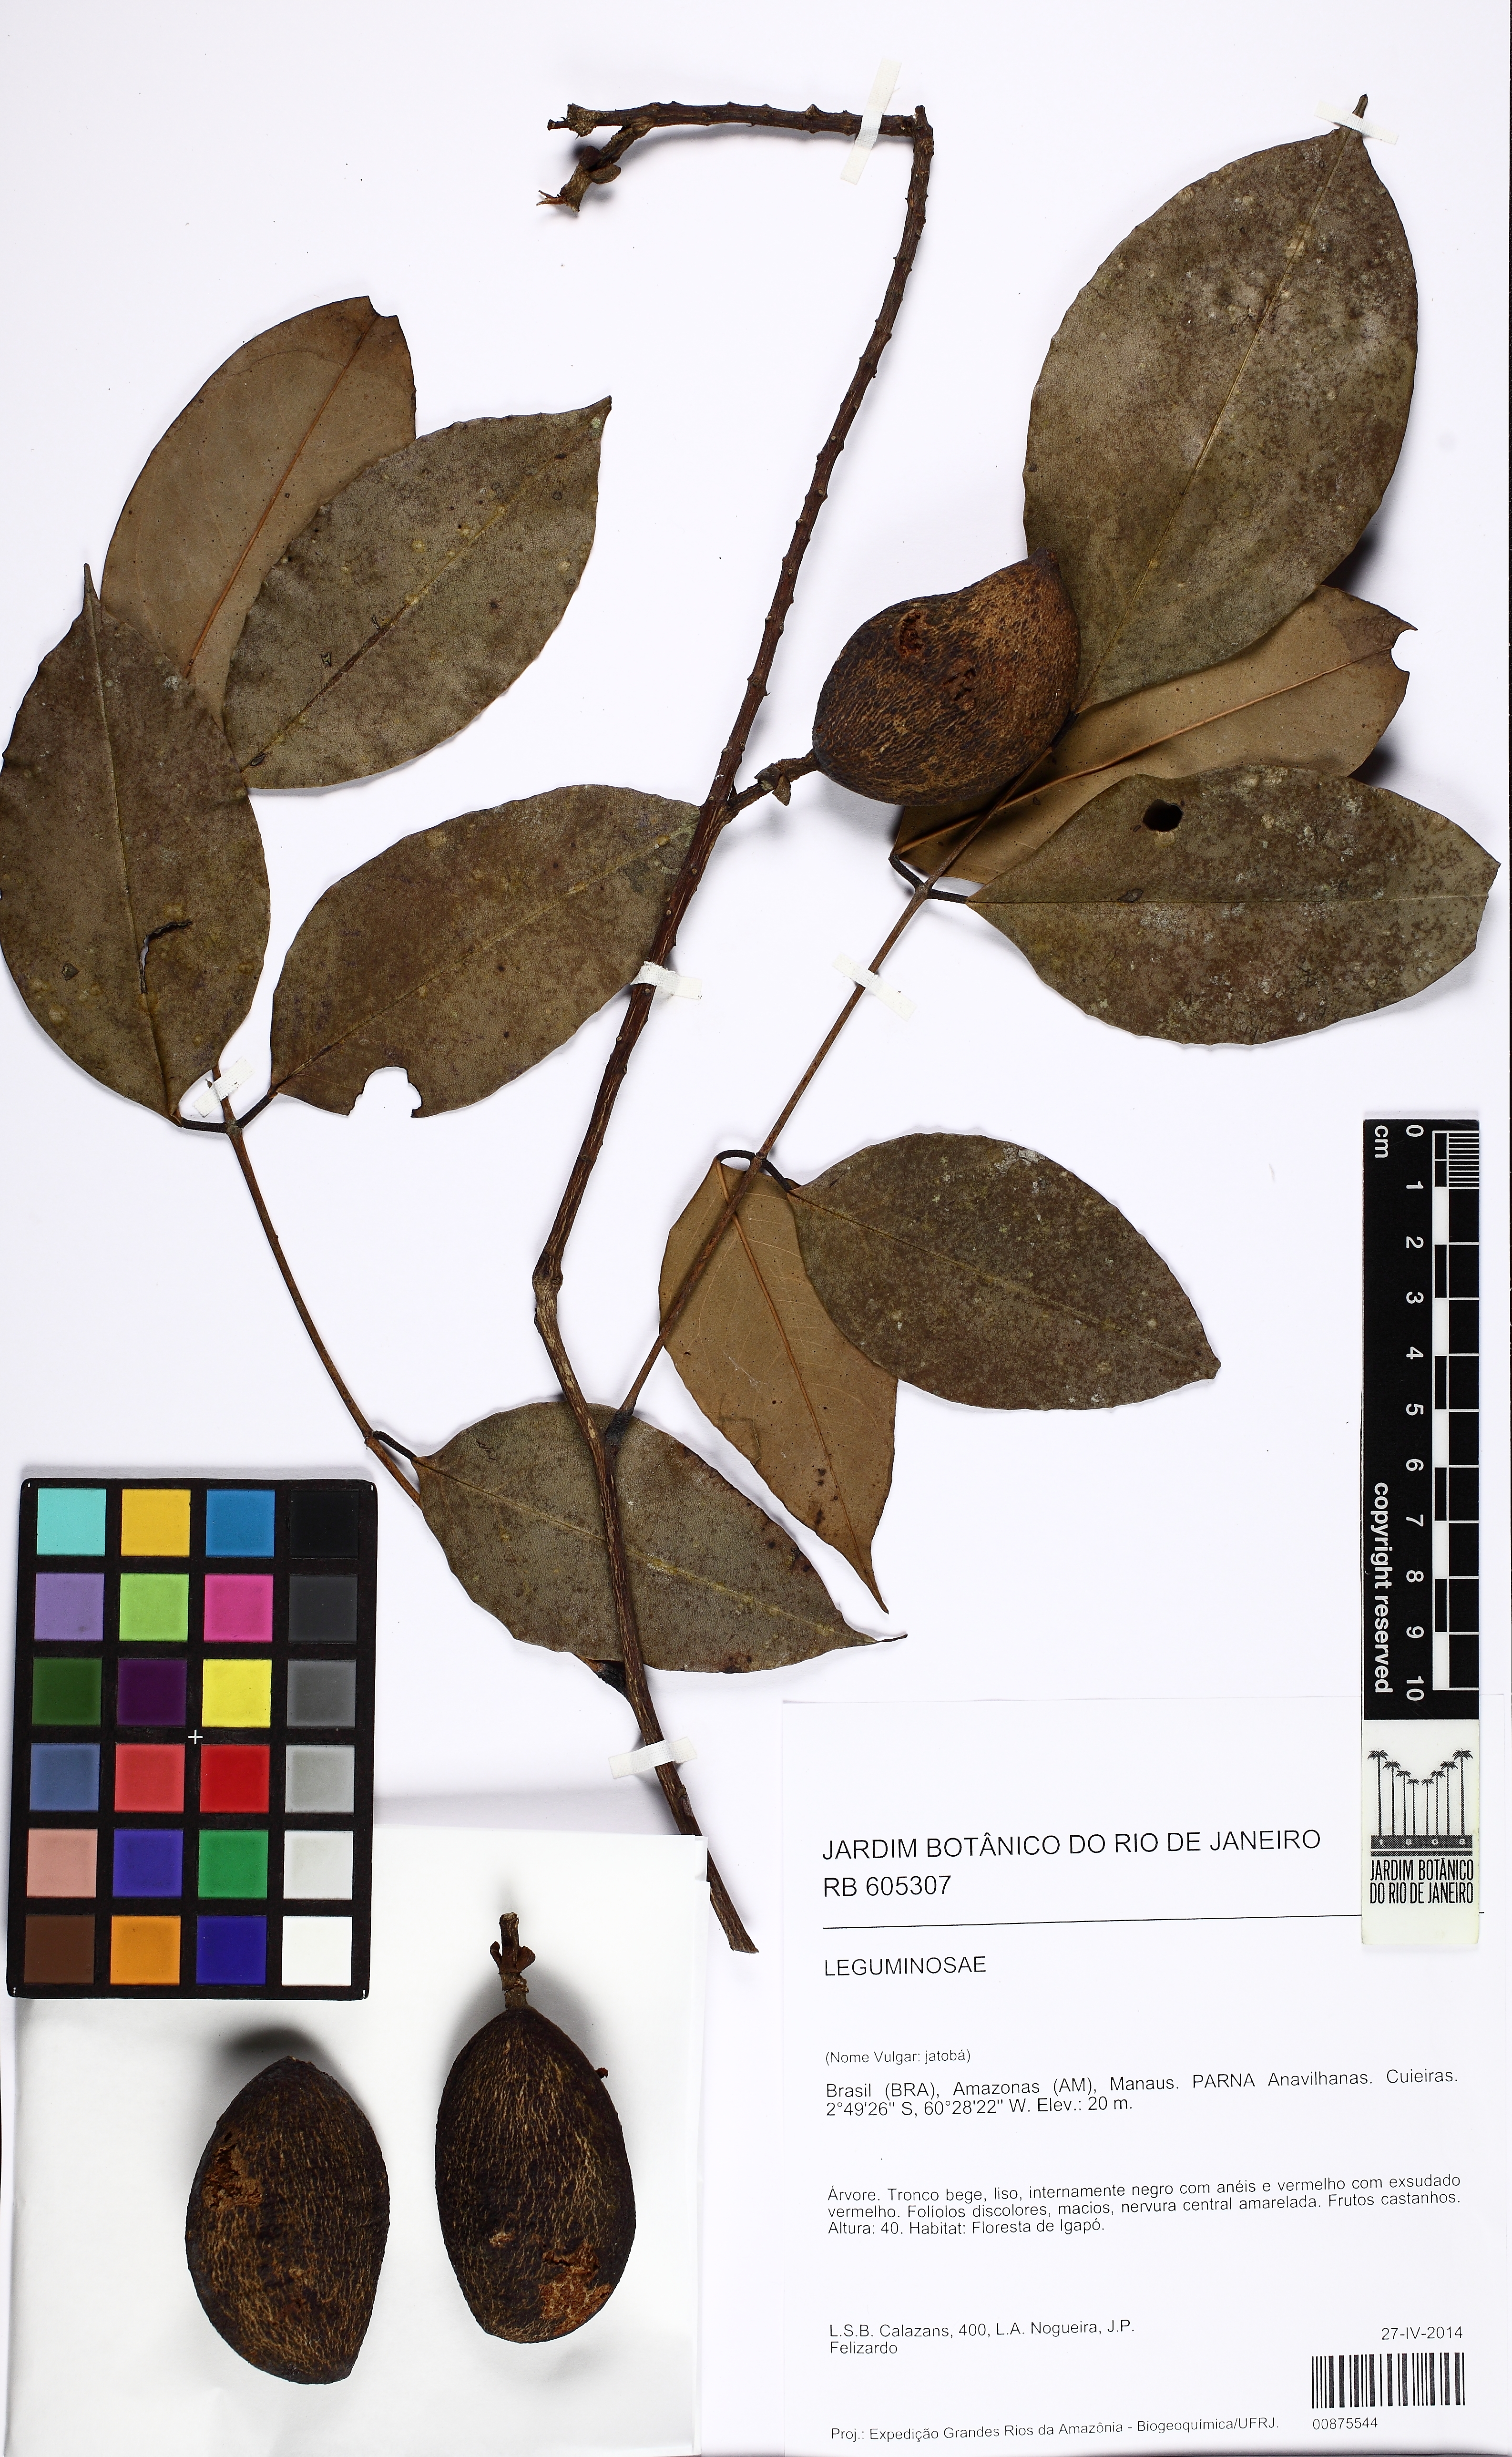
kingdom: Plantae
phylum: Tracheophyta
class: Magnoliopsida
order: Fabales
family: Fabaceae
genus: Swartzia
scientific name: Swartzia laevicarpa
